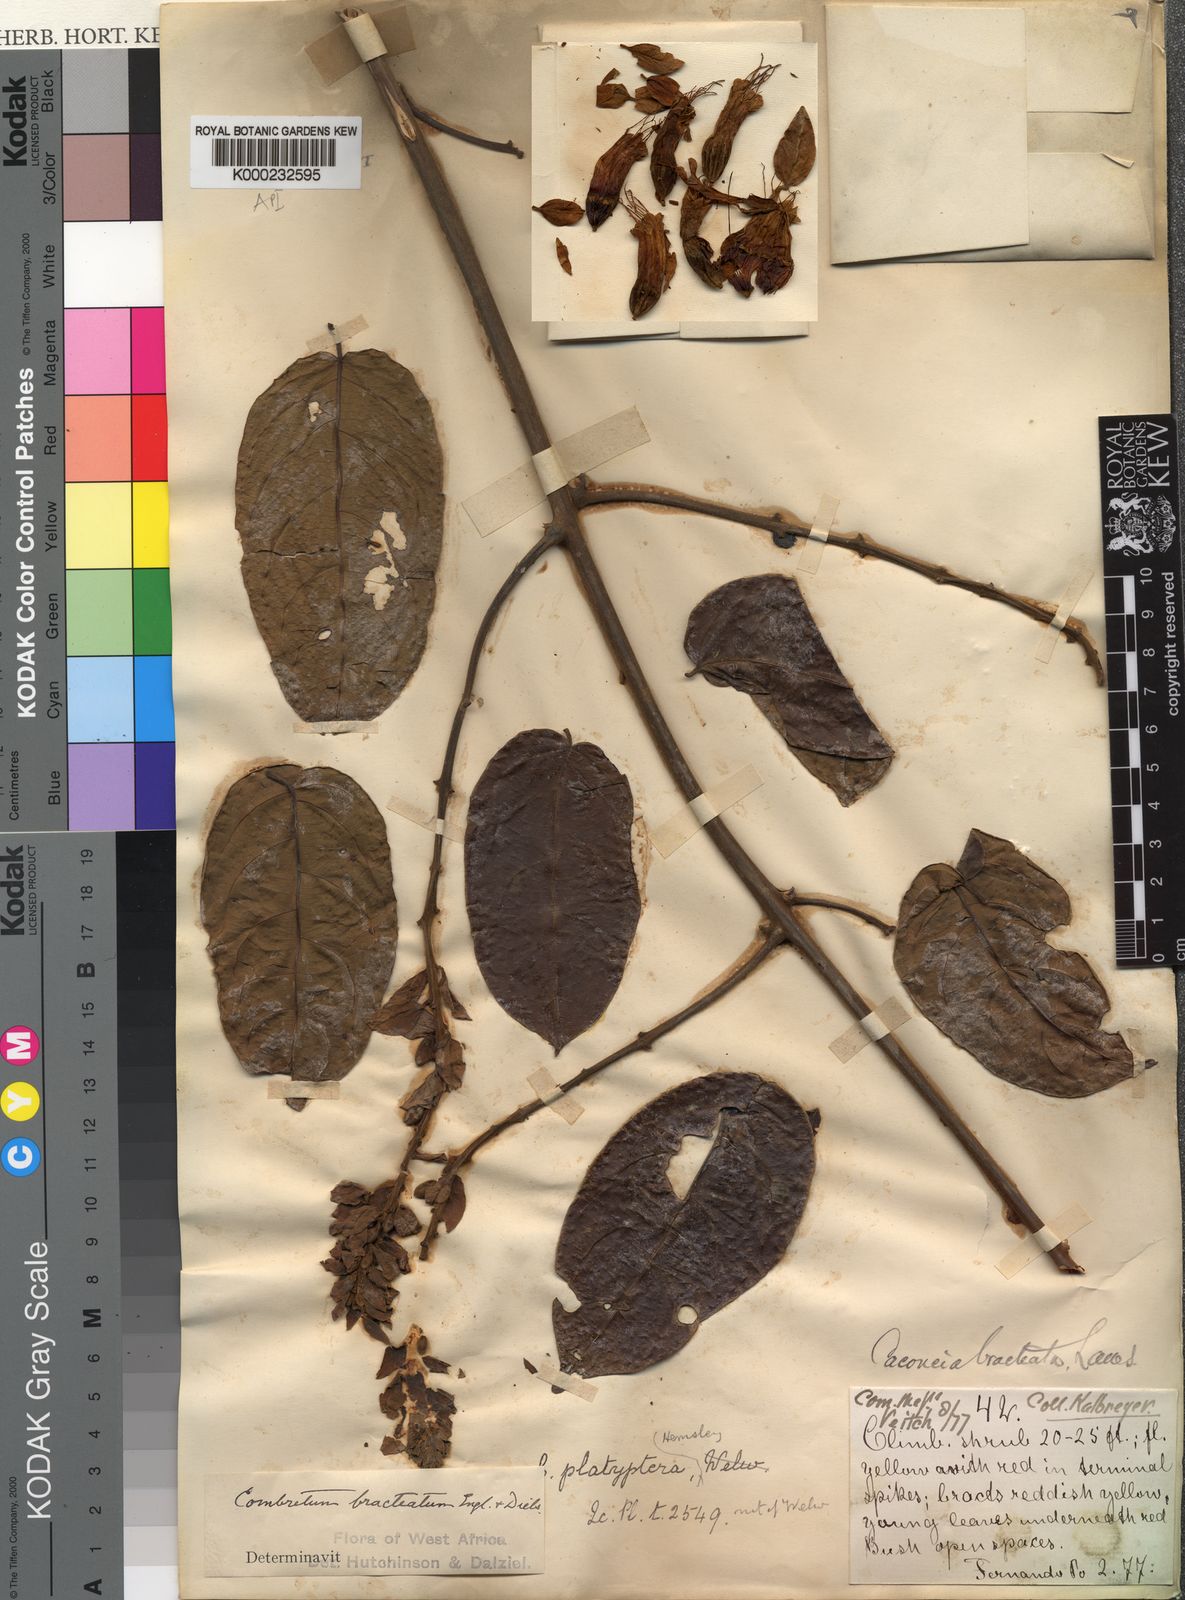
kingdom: Plantae
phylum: Tracheophyta
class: Magnoliopsida
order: Myrtales
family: Combretaceae
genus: Combretum
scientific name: Combretum bracteatum
